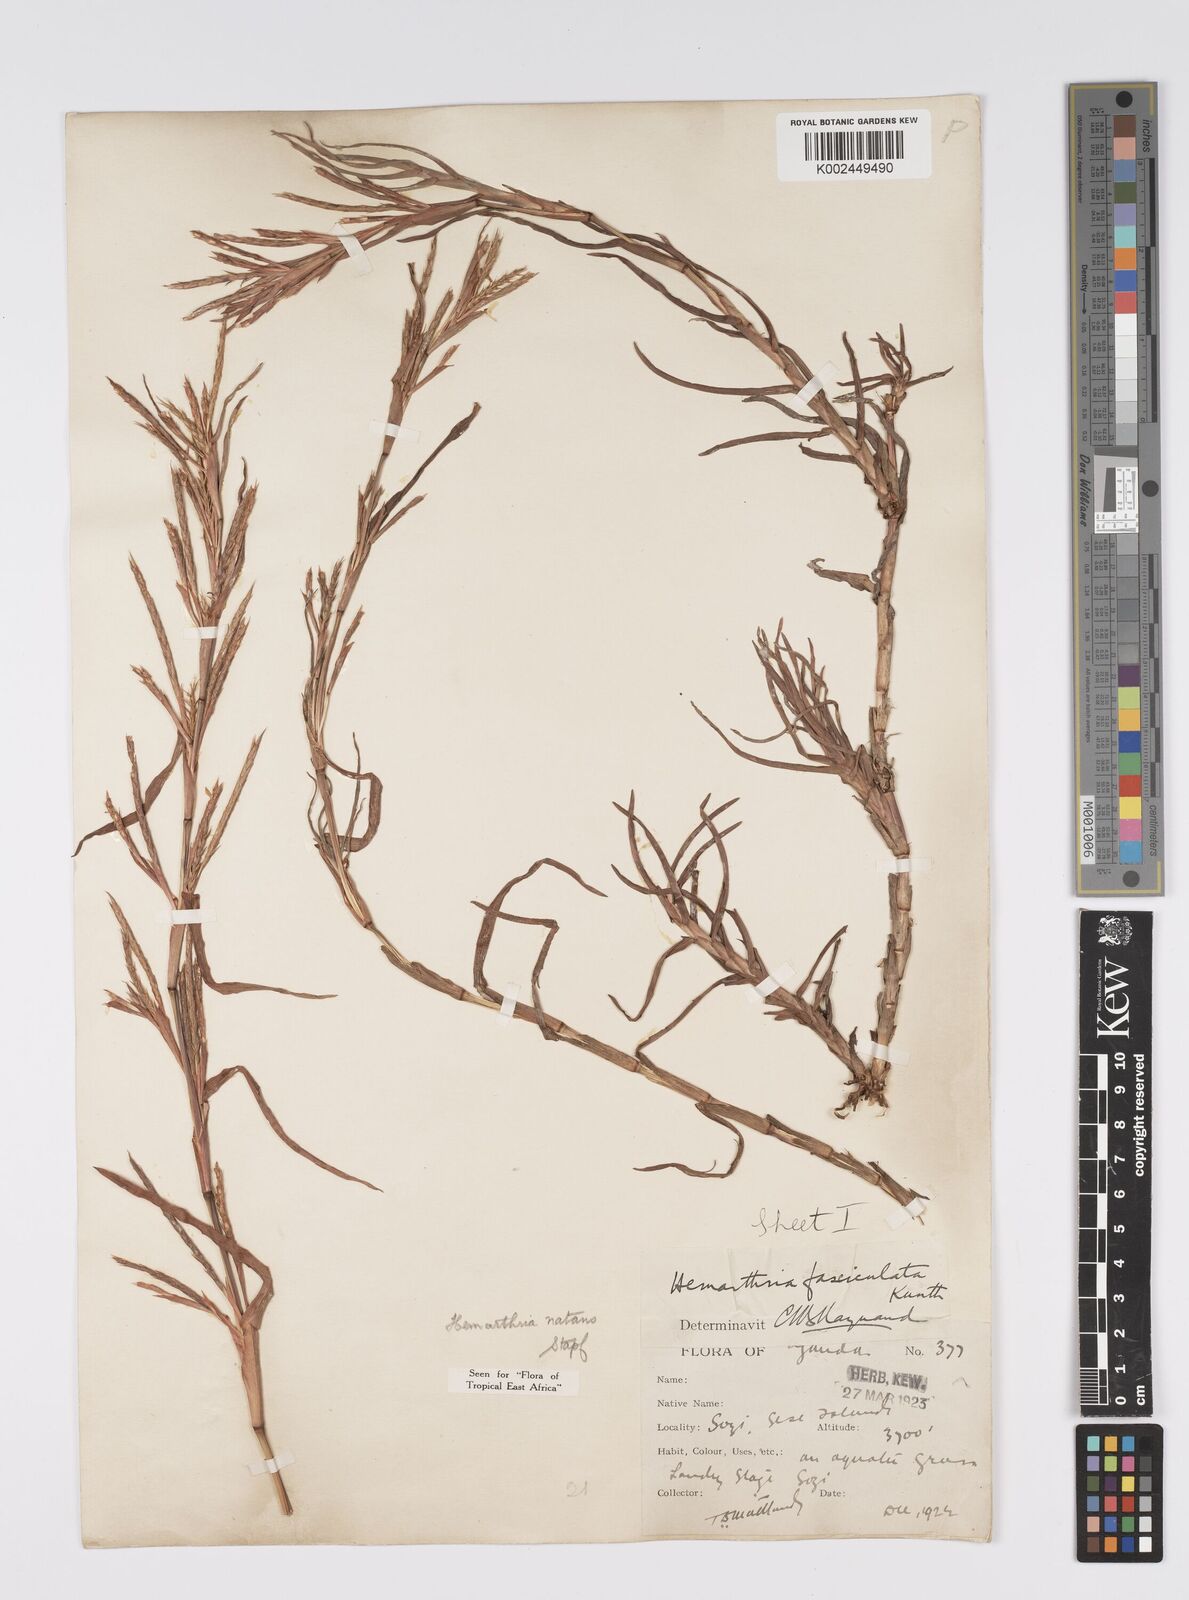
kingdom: Plantae
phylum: Tracheophyta
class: Liliopsida
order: Poales
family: Poaceae
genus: Hemarthria
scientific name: Hemarthria natans
